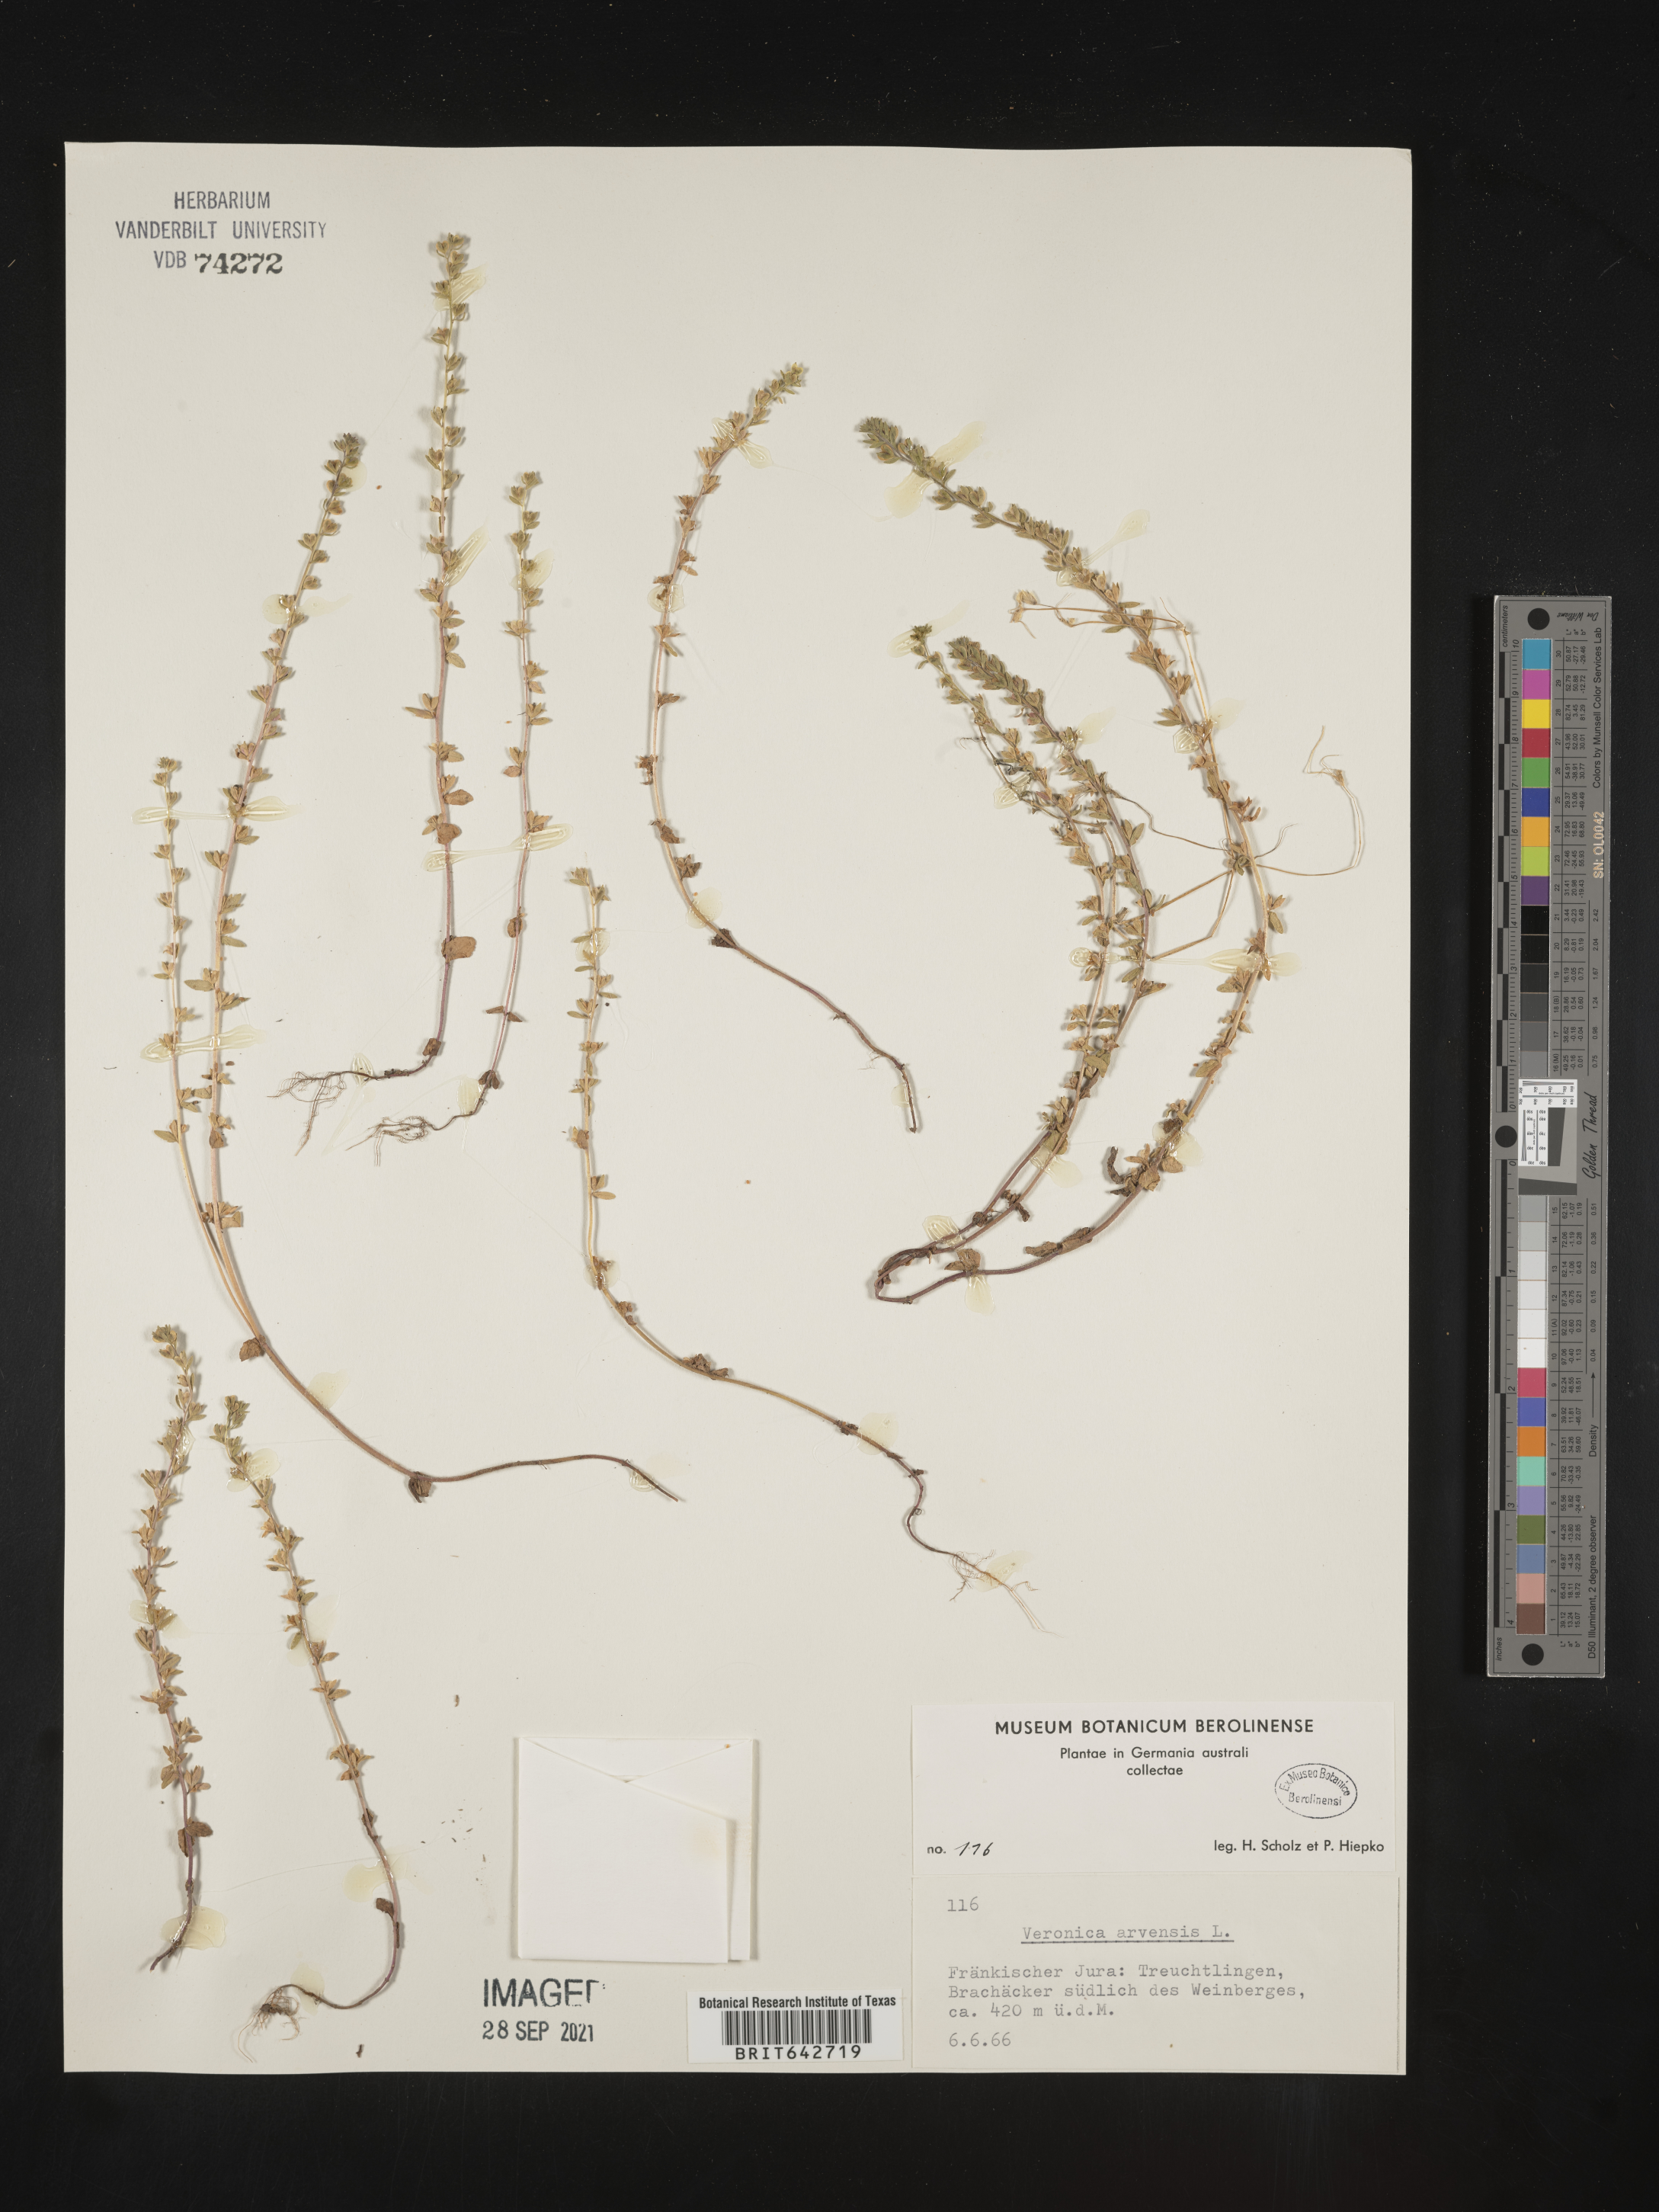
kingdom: Plantae
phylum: Tracheophyta
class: Magnoliopsida
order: Lamiales
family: Plantaginaceae
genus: Veronica
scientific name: Veronica
